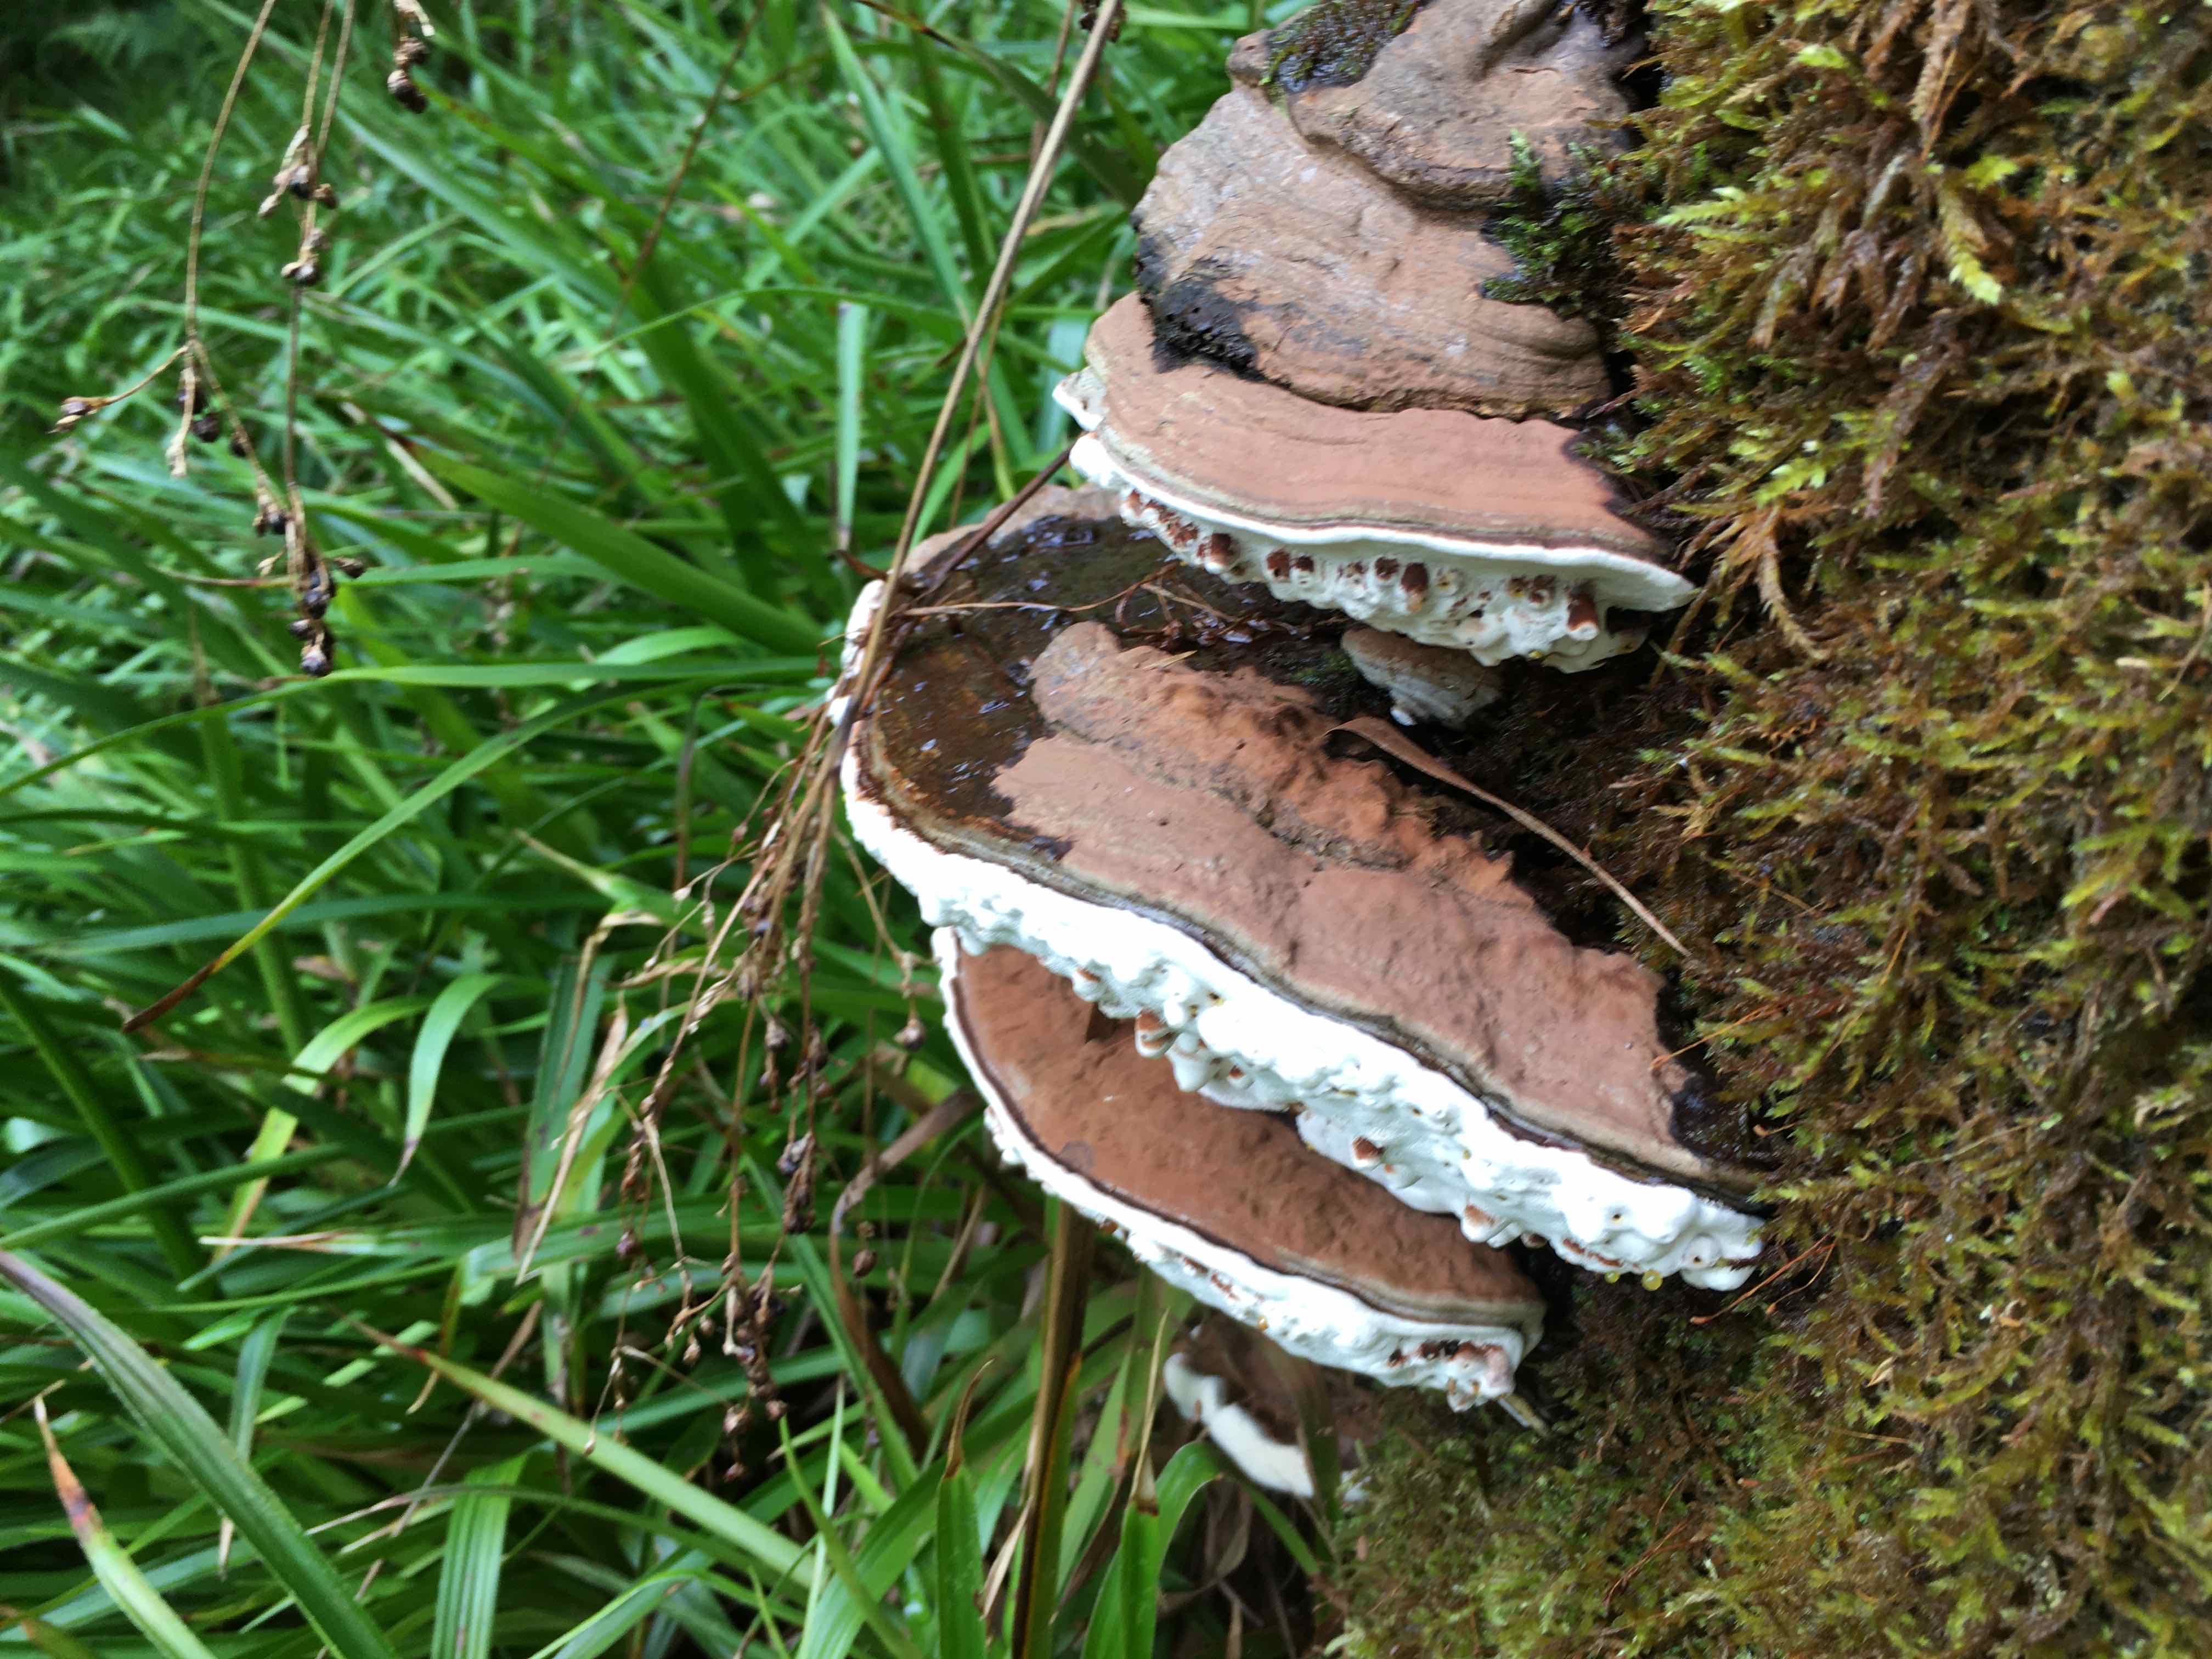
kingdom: Fungi
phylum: Basidiomycota
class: Agaricomycetes
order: Polyporales
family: Polyporaceae
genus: Ganoderma
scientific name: Ganoderma applanatum
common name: flad lakporesvamp
